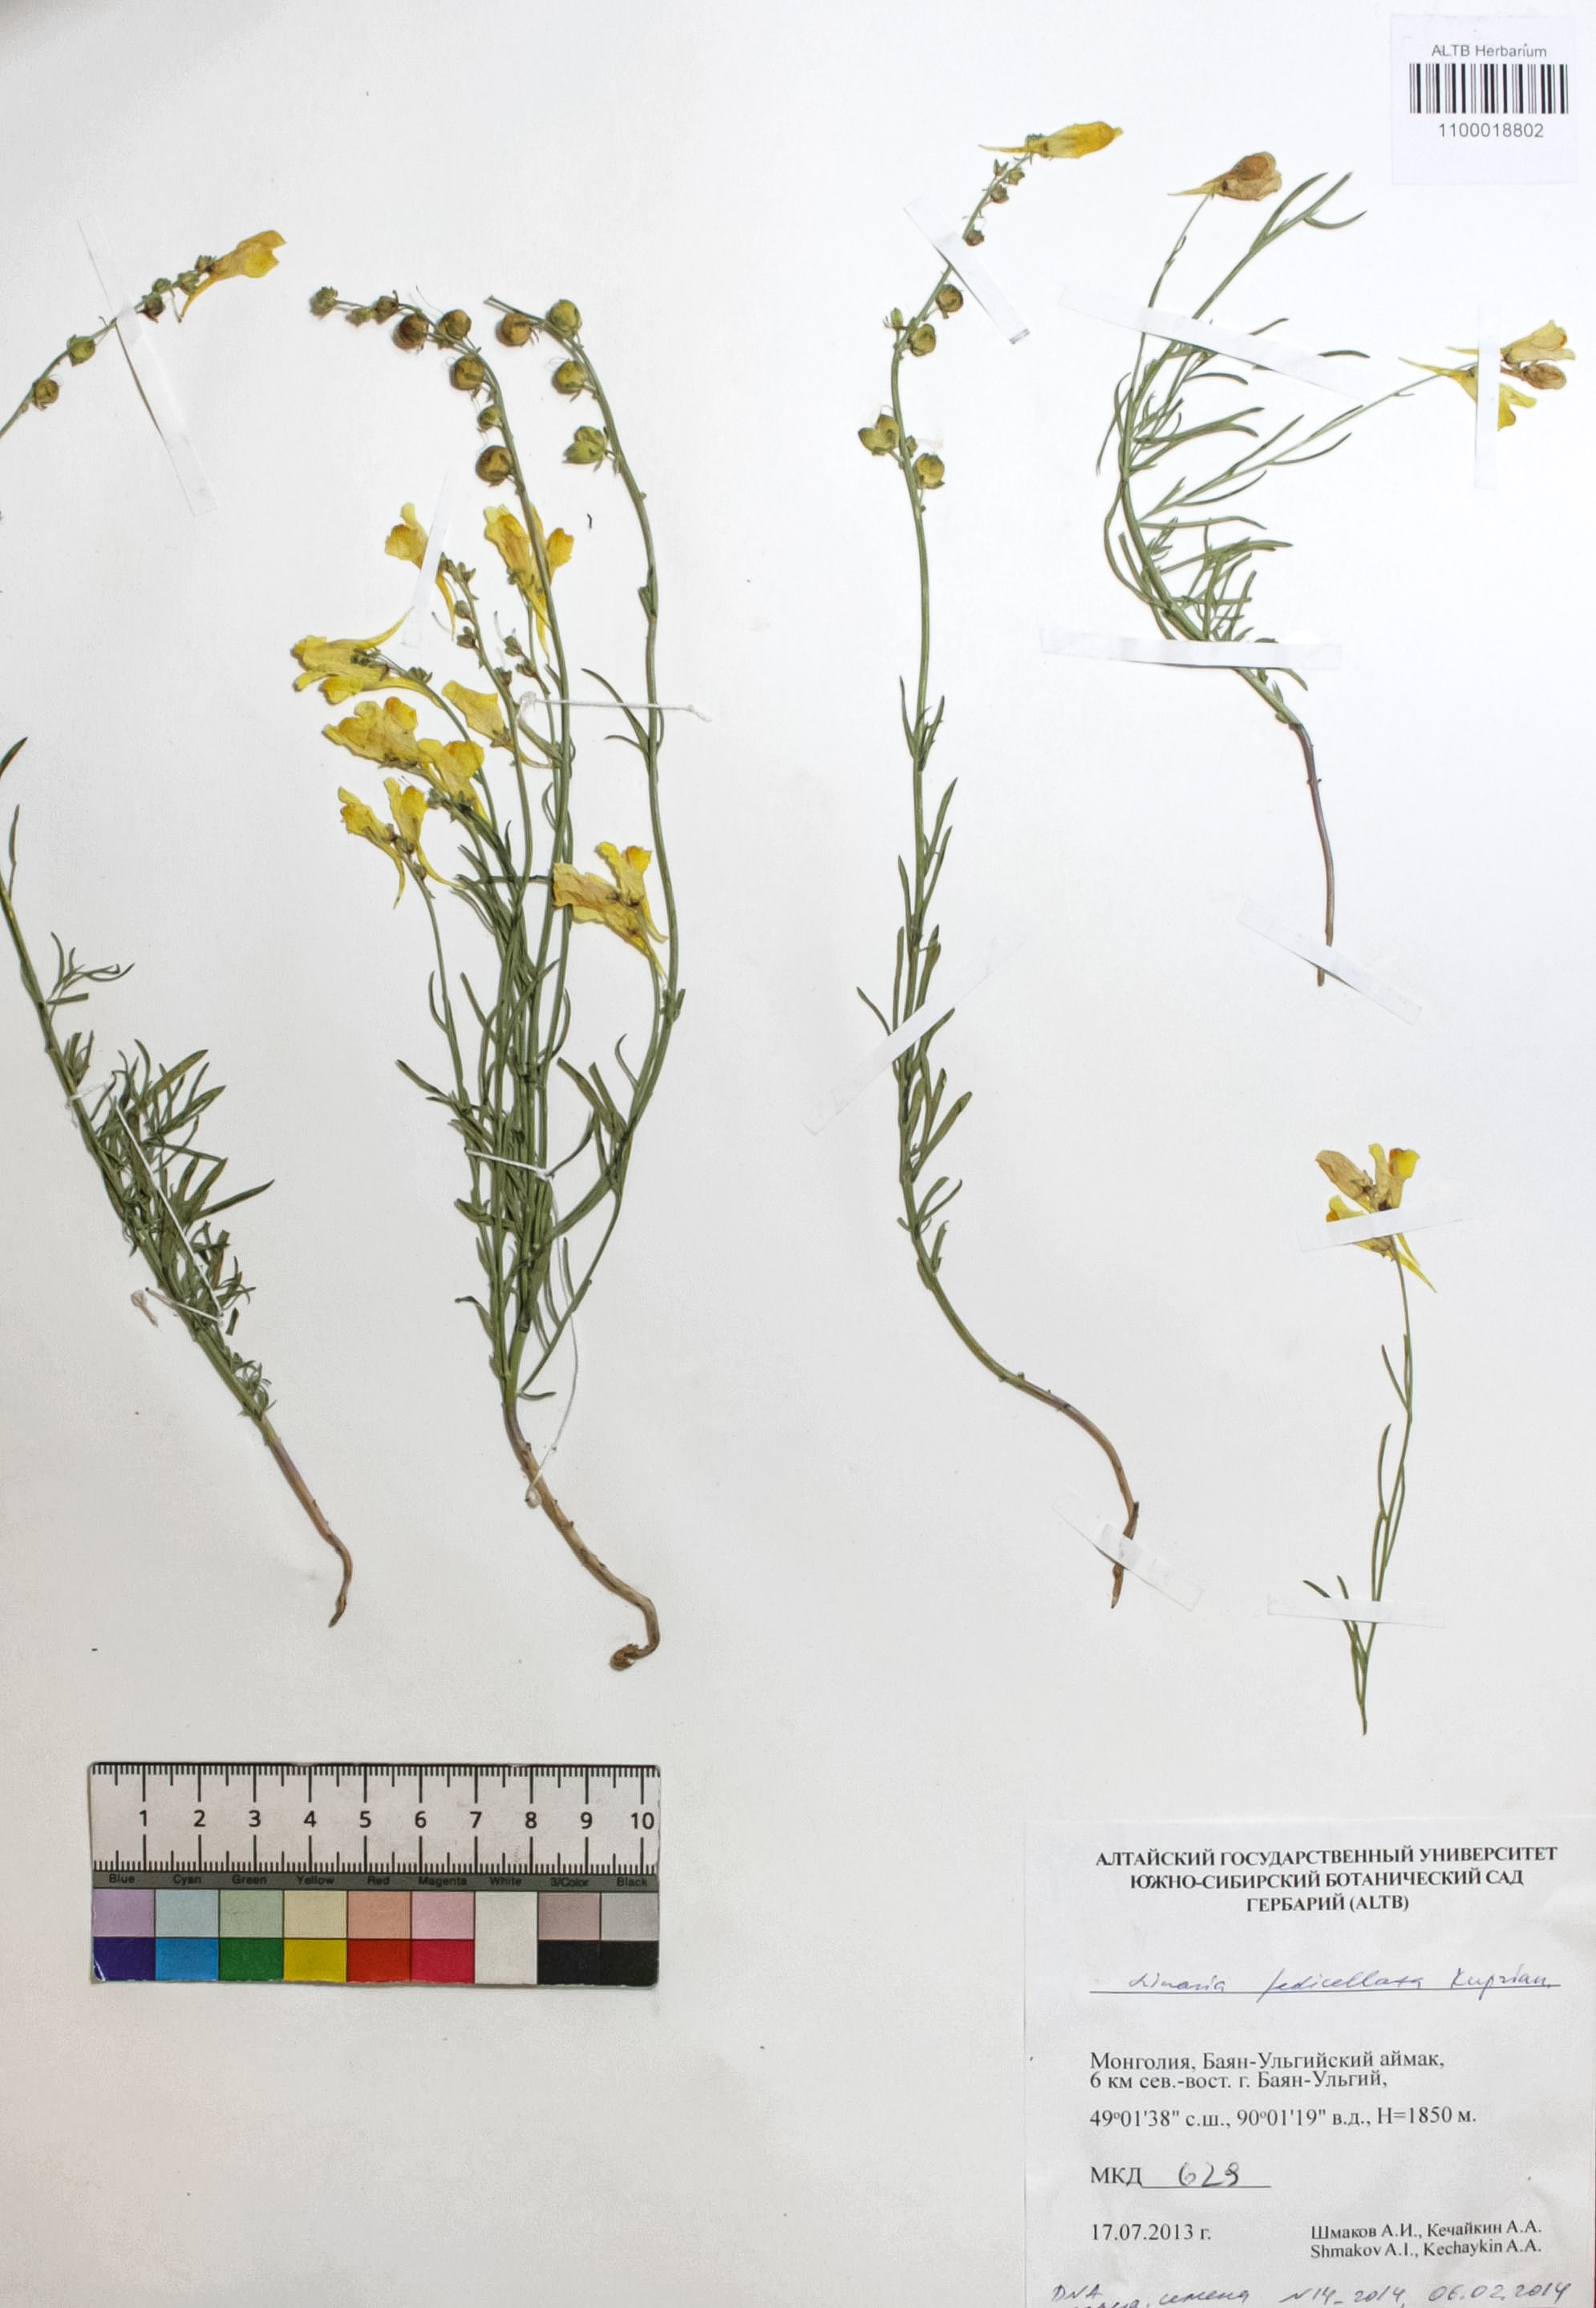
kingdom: Plantae
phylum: Tracheophyta
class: Magnoliopsida
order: Lamiales
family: Plantaginaceae
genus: Linaria
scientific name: Linaria pedicellata
